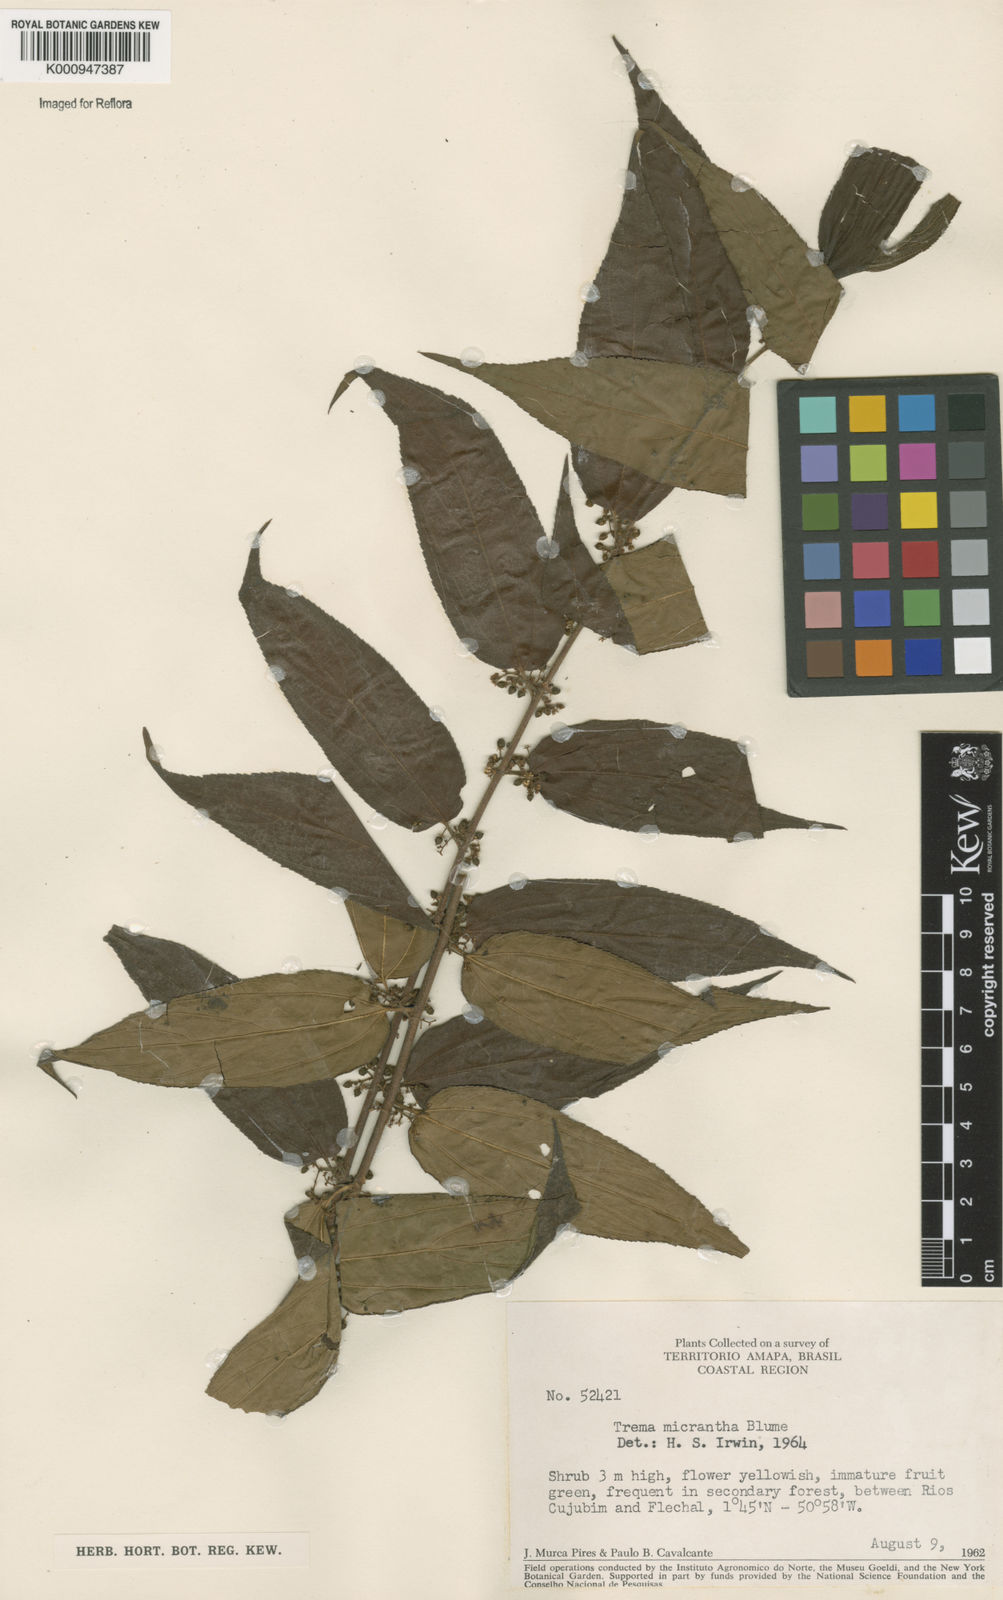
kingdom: Plantae
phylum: Tracheophyta
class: Magnoliopsida
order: Rosales
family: Cannabaceae
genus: Trema
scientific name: Trema micranthum
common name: Jamaican nettletree
